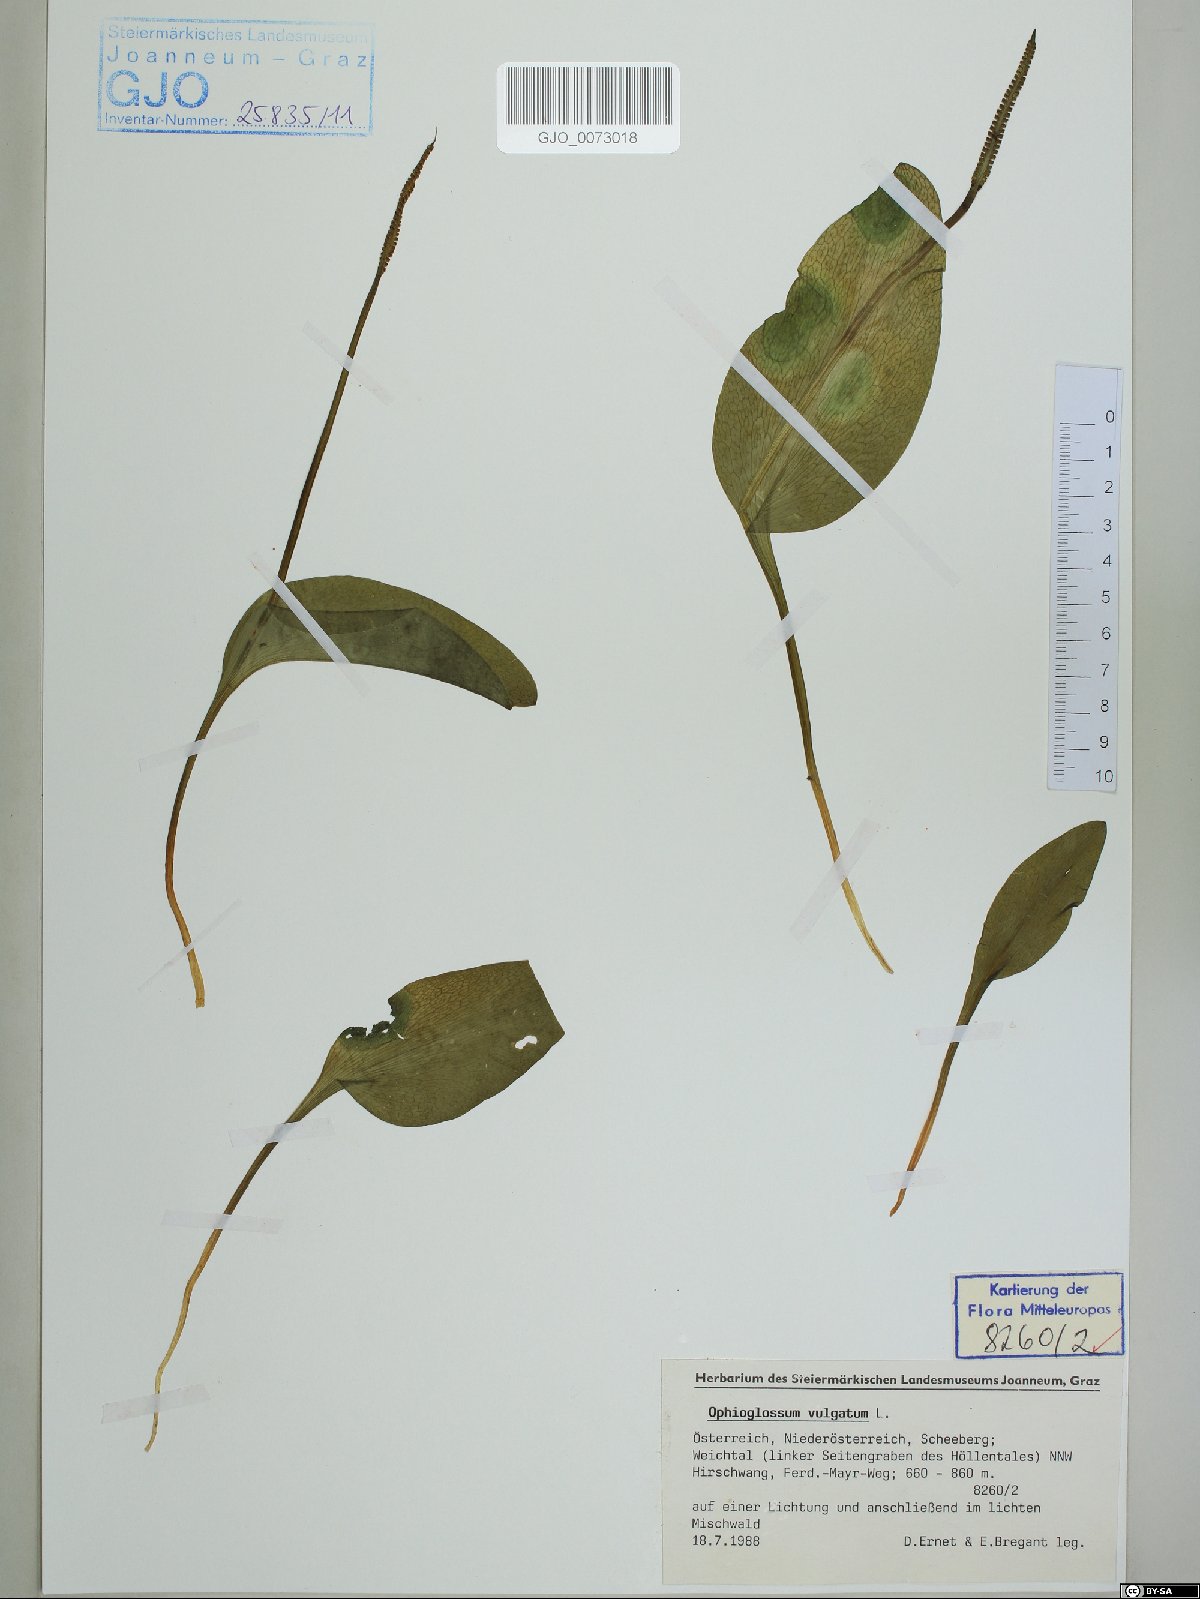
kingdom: Plantae
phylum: Tracheophyta
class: Polypodiopsida
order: Ophioglossales
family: Ophioglossaceae
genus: Ophioglossum
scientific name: Ophioglossum vulgatum
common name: Adder's-tongue
